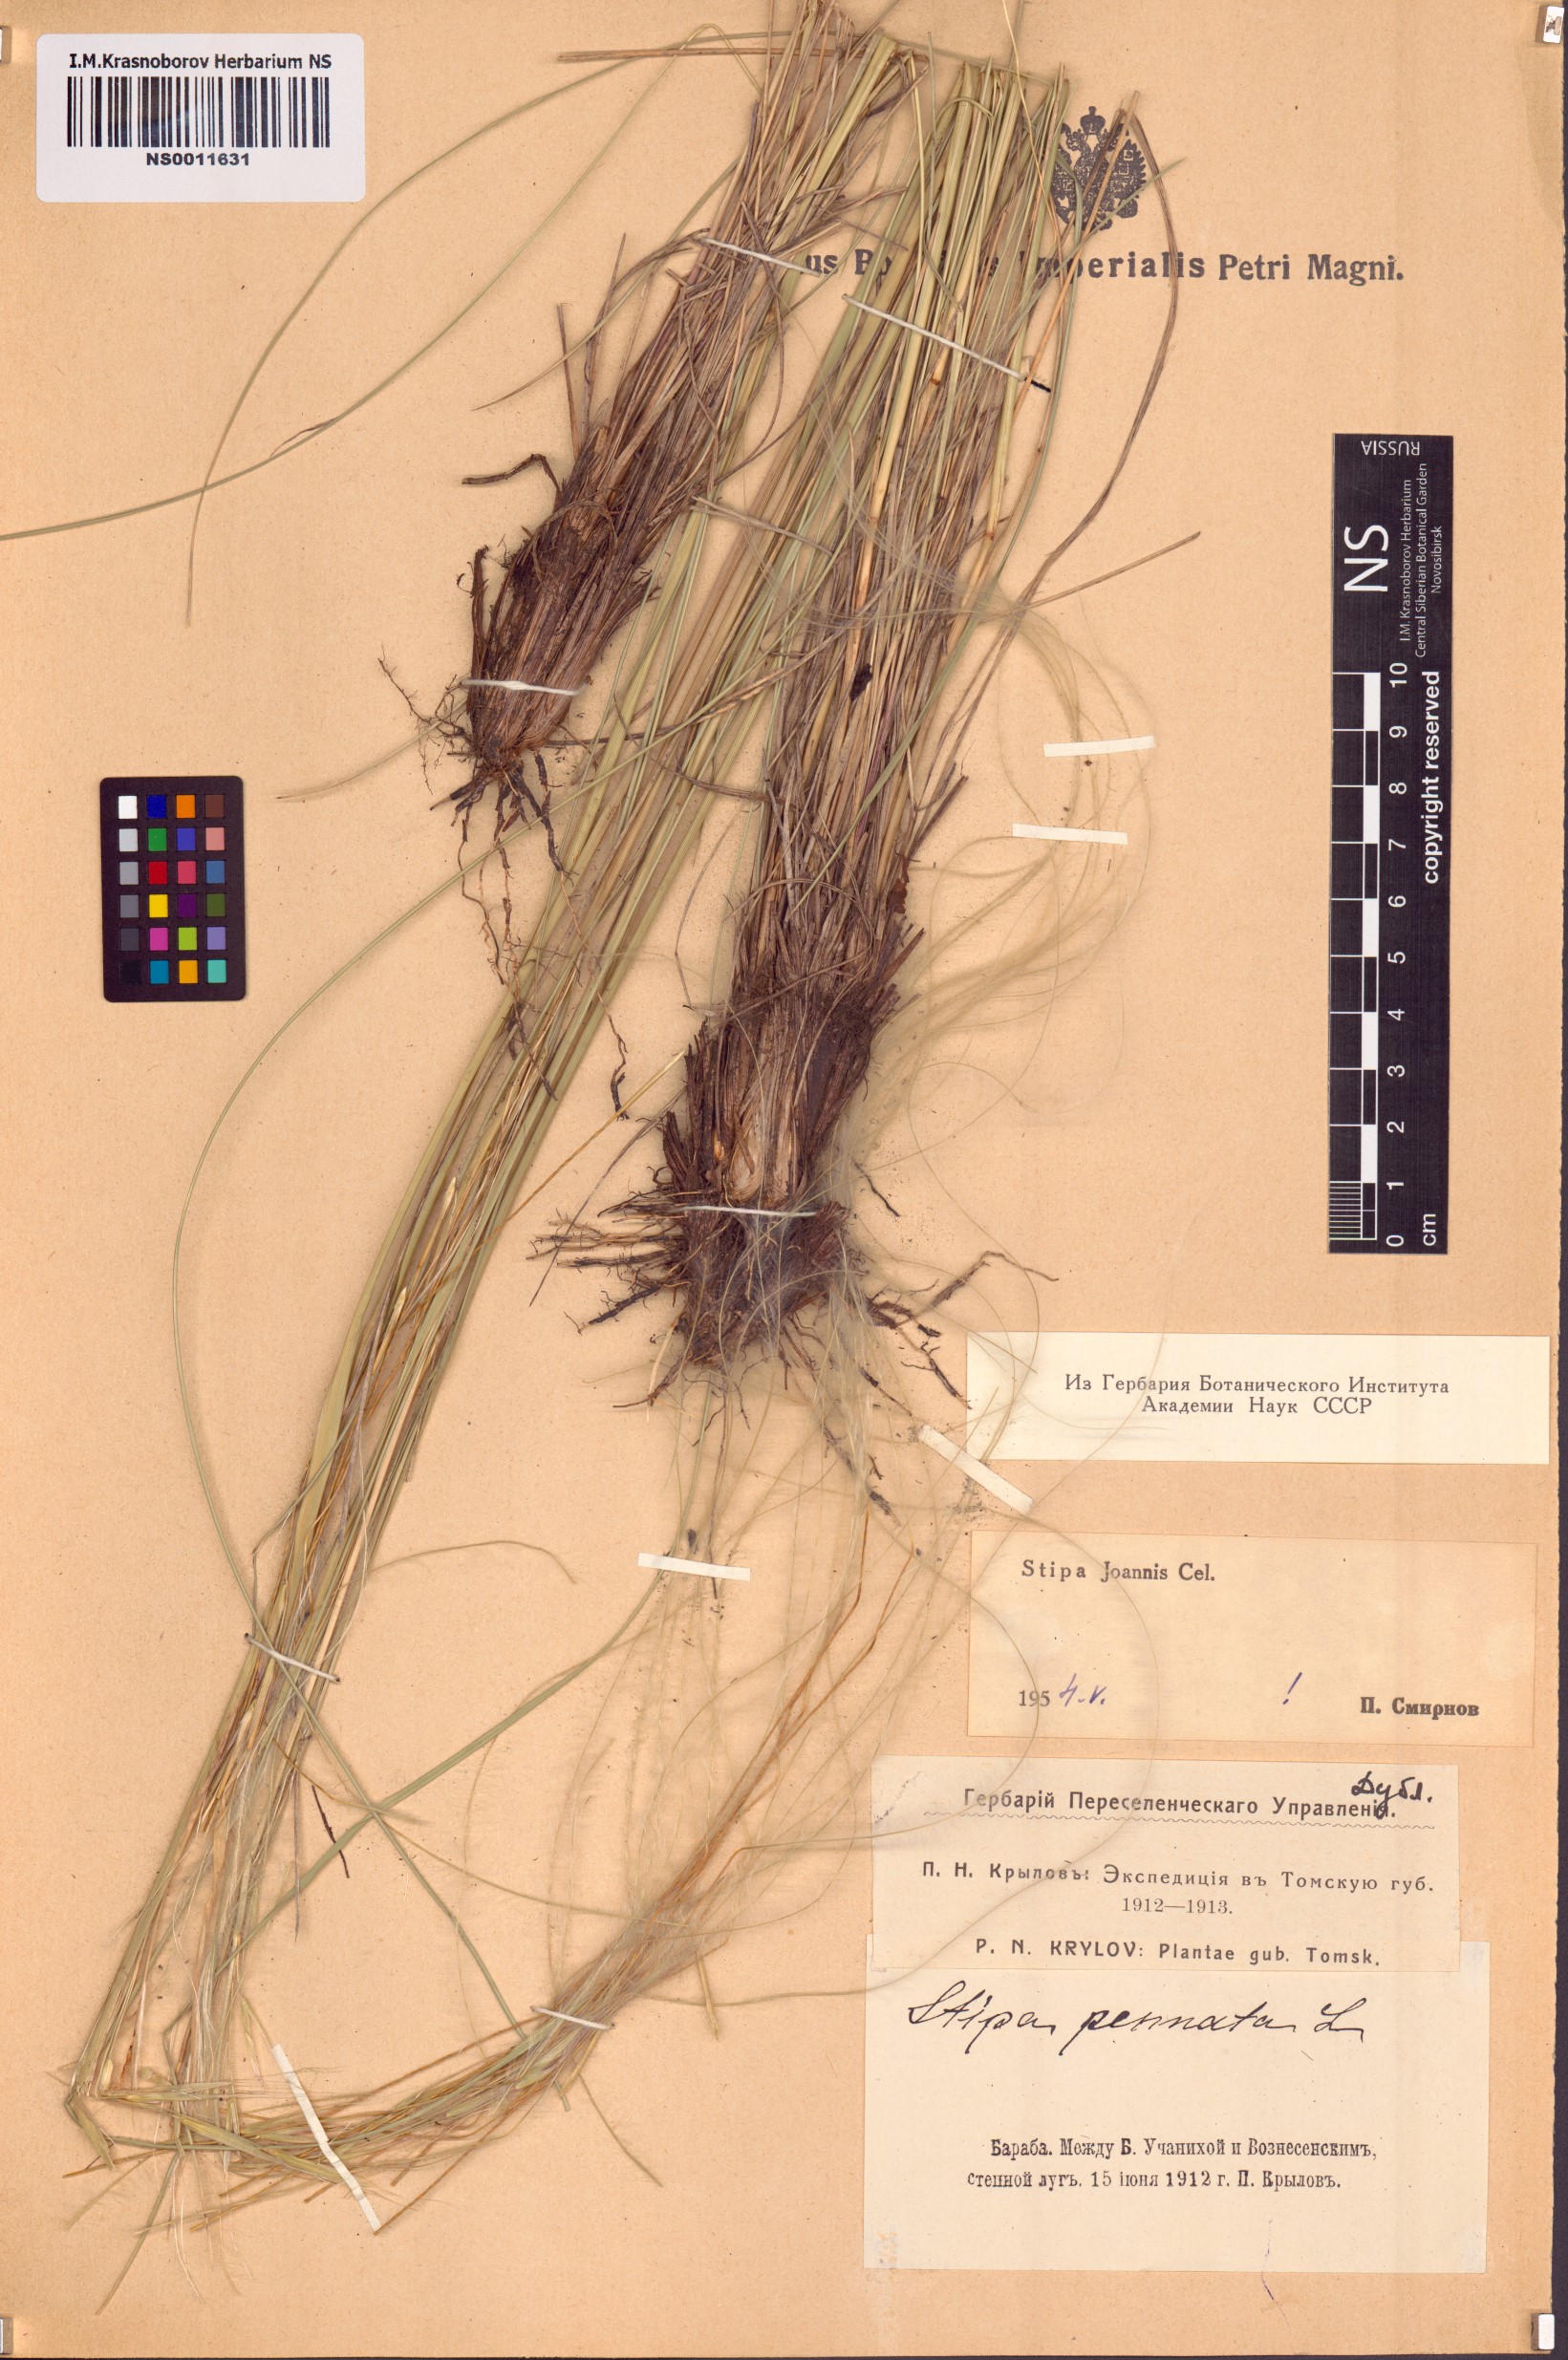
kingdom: Plantae
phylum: Tracheophyta
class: Liliopsida
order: Poales
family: Poaceae
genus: Stipa
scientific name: Stipa pennata
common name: European feather grass
